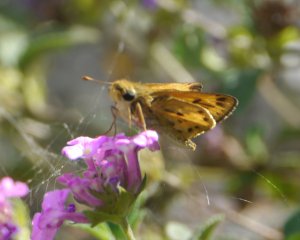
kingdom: Animalia
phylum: Arthropoda
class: Insecta
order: Lepidoptera
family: Hesperiidae
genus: Hylephila
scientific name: Hylephila phyleus
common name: Fiery Skipper
